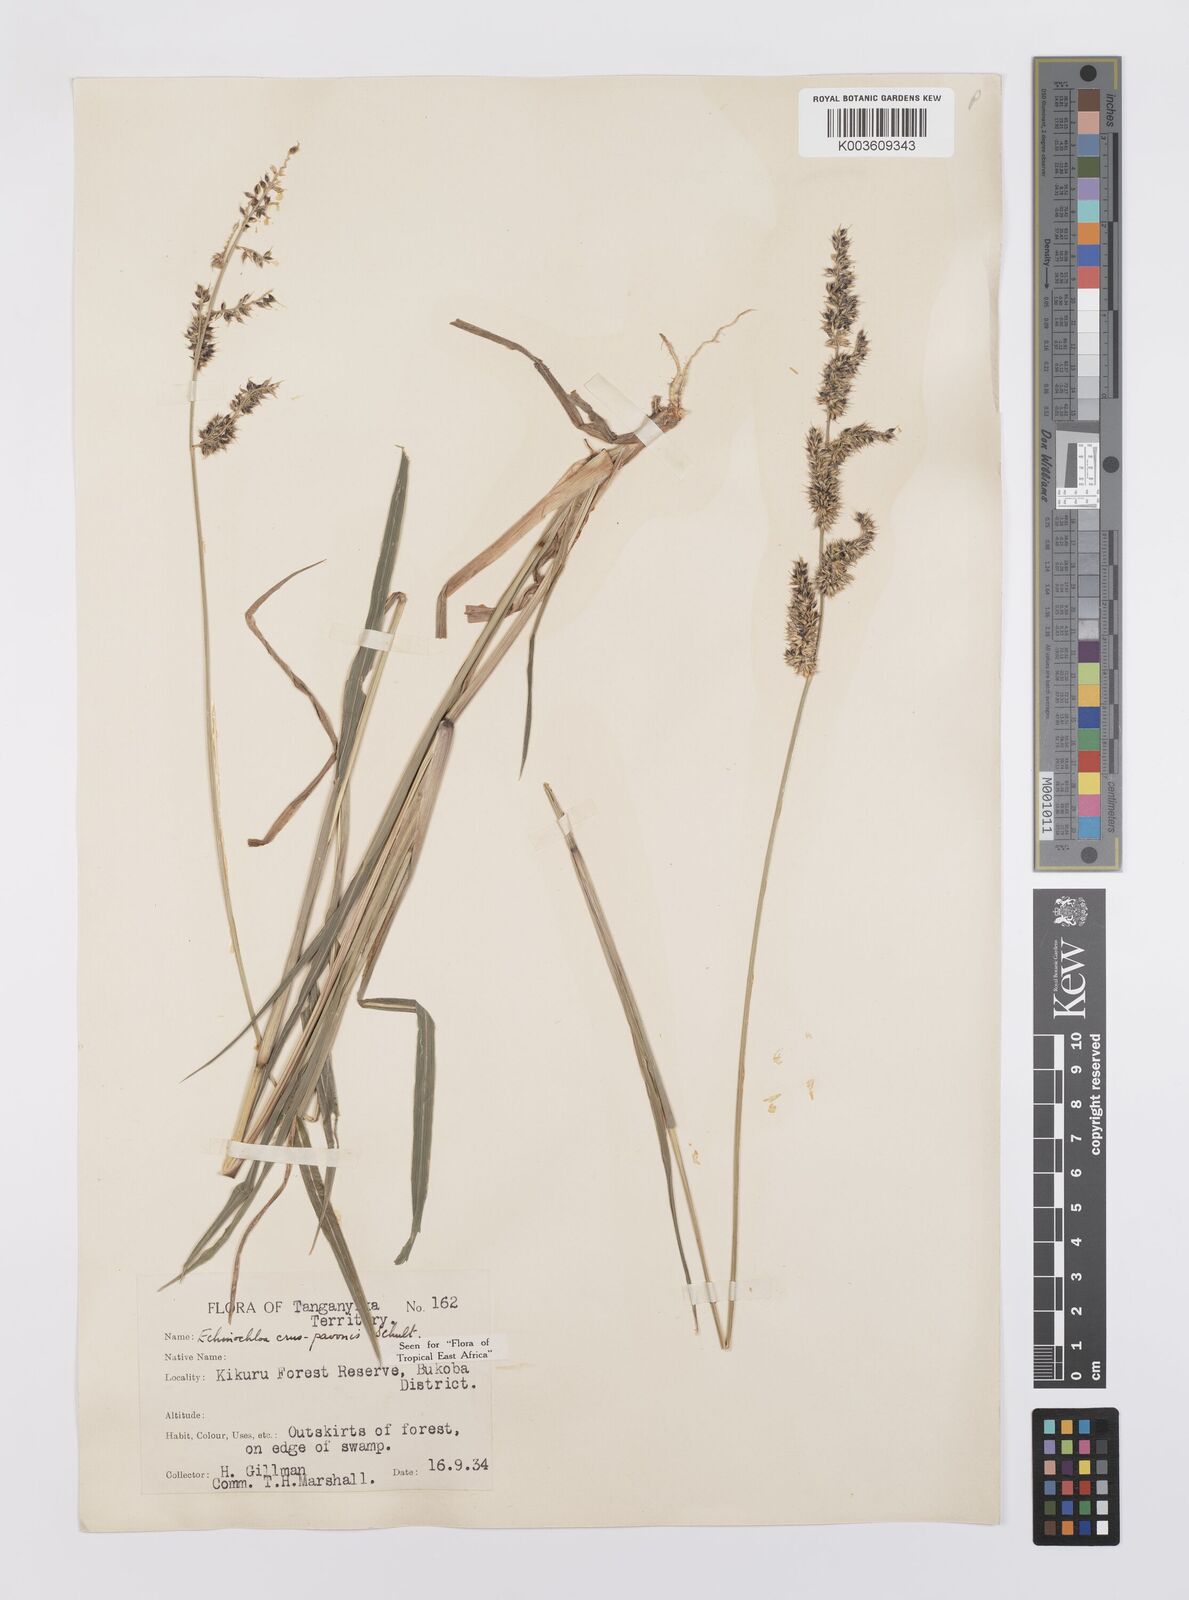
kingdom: Plantae
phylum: Tracheophyta
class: Liliopsida
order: Poales
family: Poaceae
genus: Echinochloa
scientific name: Echinochloa crus-pavonis
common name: Gulf cockspur grass
